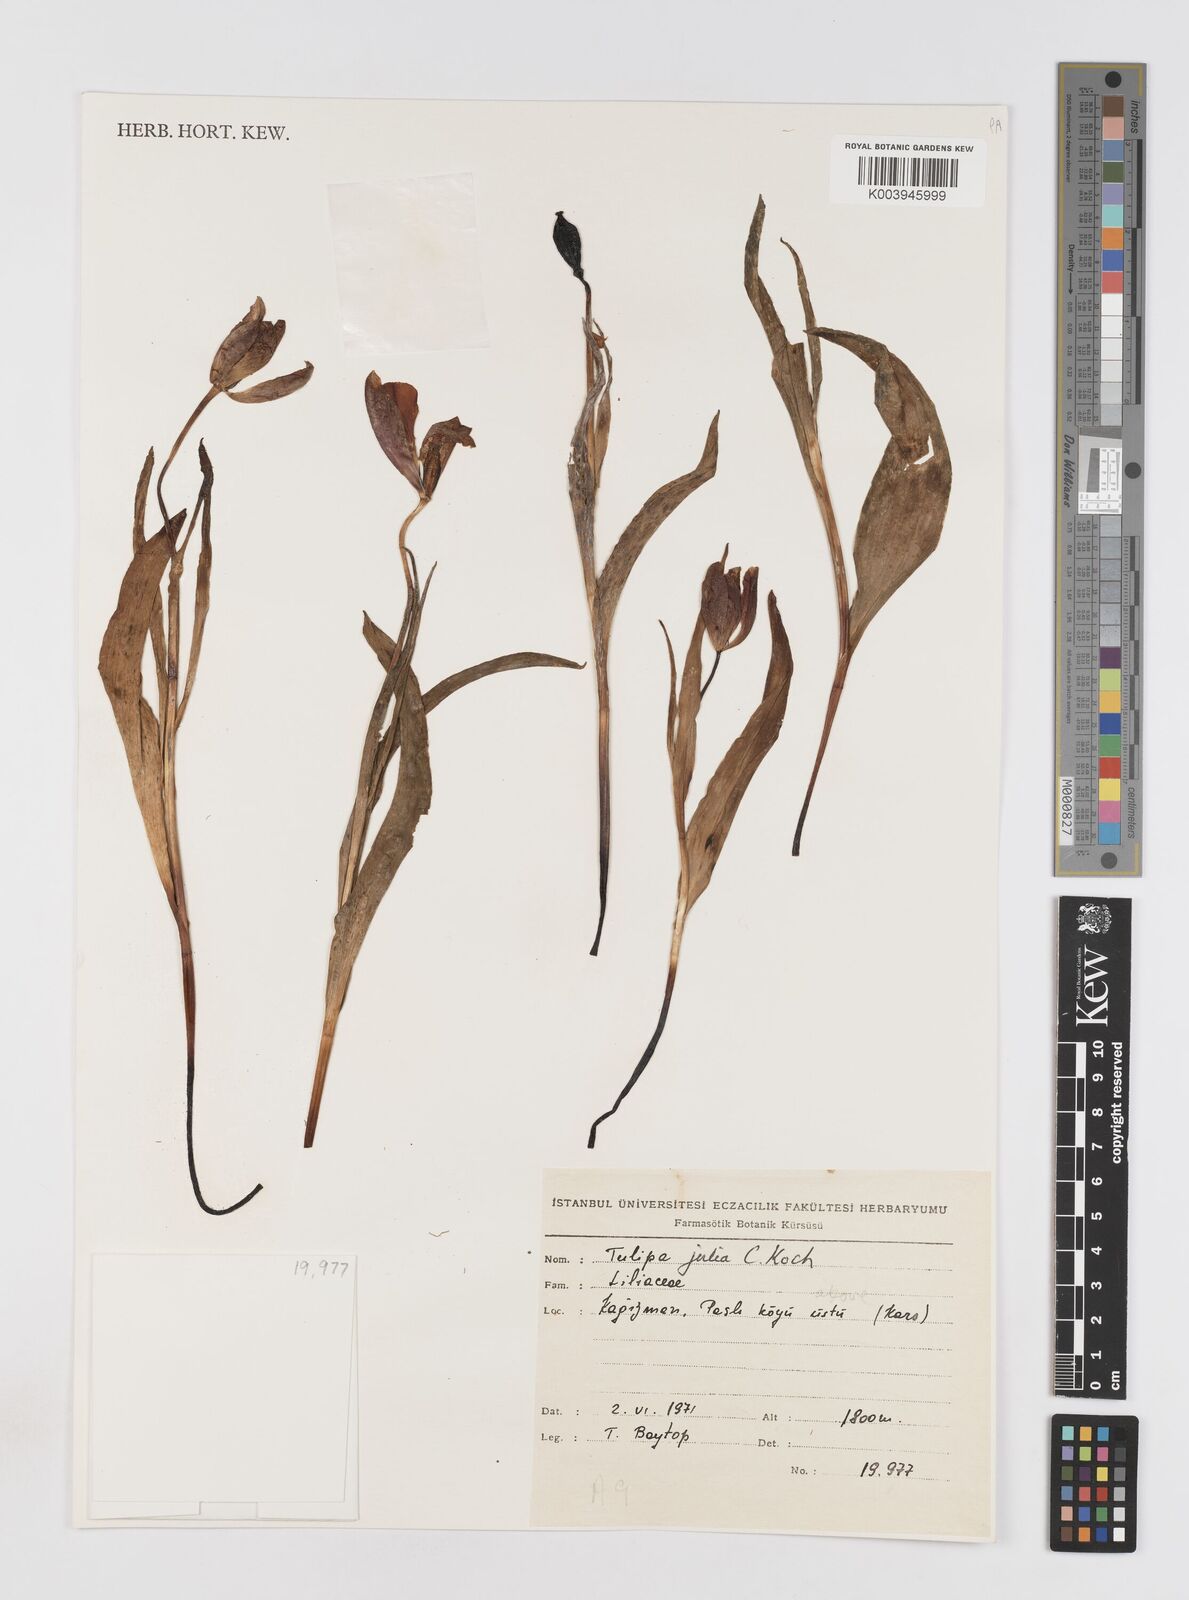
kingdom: Plantae
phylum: Tracheophyta
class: Liliopsida
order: Liliales
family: Liliaceae
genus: Tulipa
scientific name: Tulipa julia
